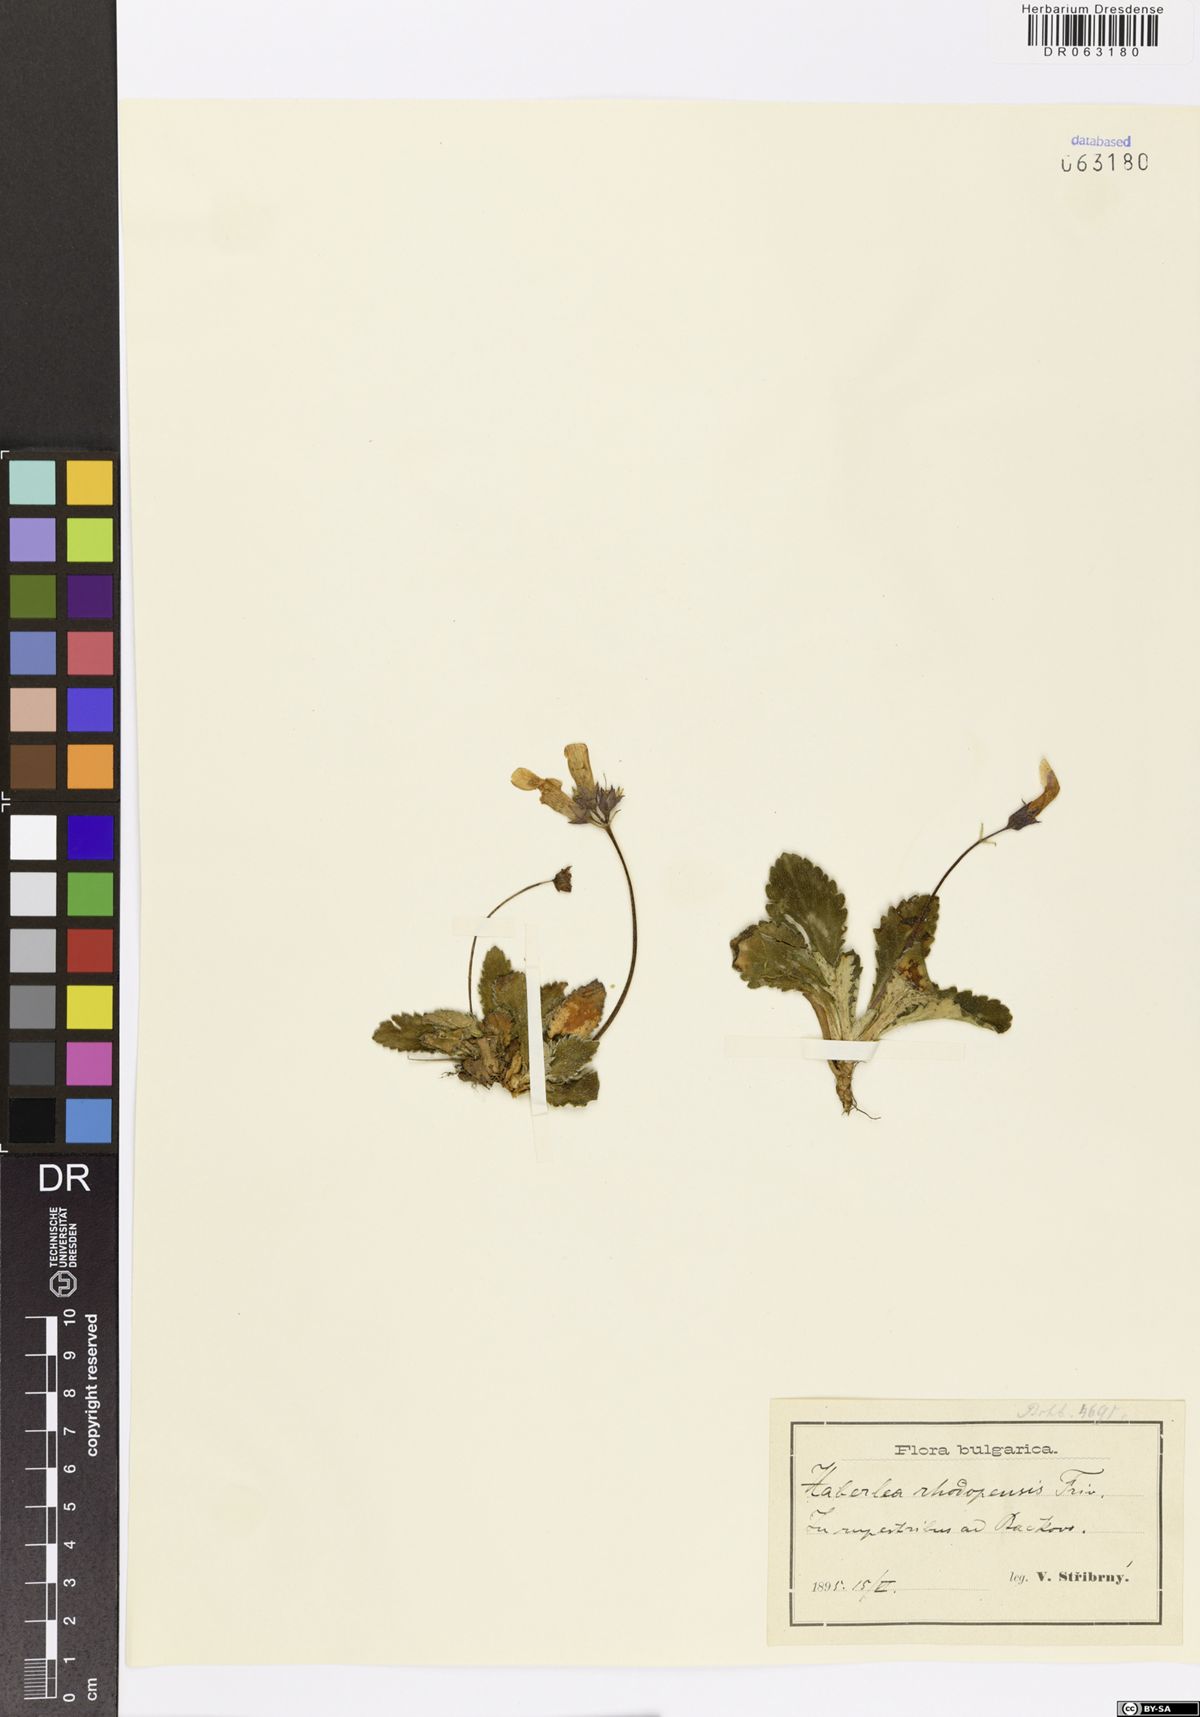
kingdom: Plantae
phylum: Tracheophyta
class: Magnoliopsida
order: Lamiales
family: Gesneriaceae
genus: Haberlea
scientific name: Haberlea rhodopensis
